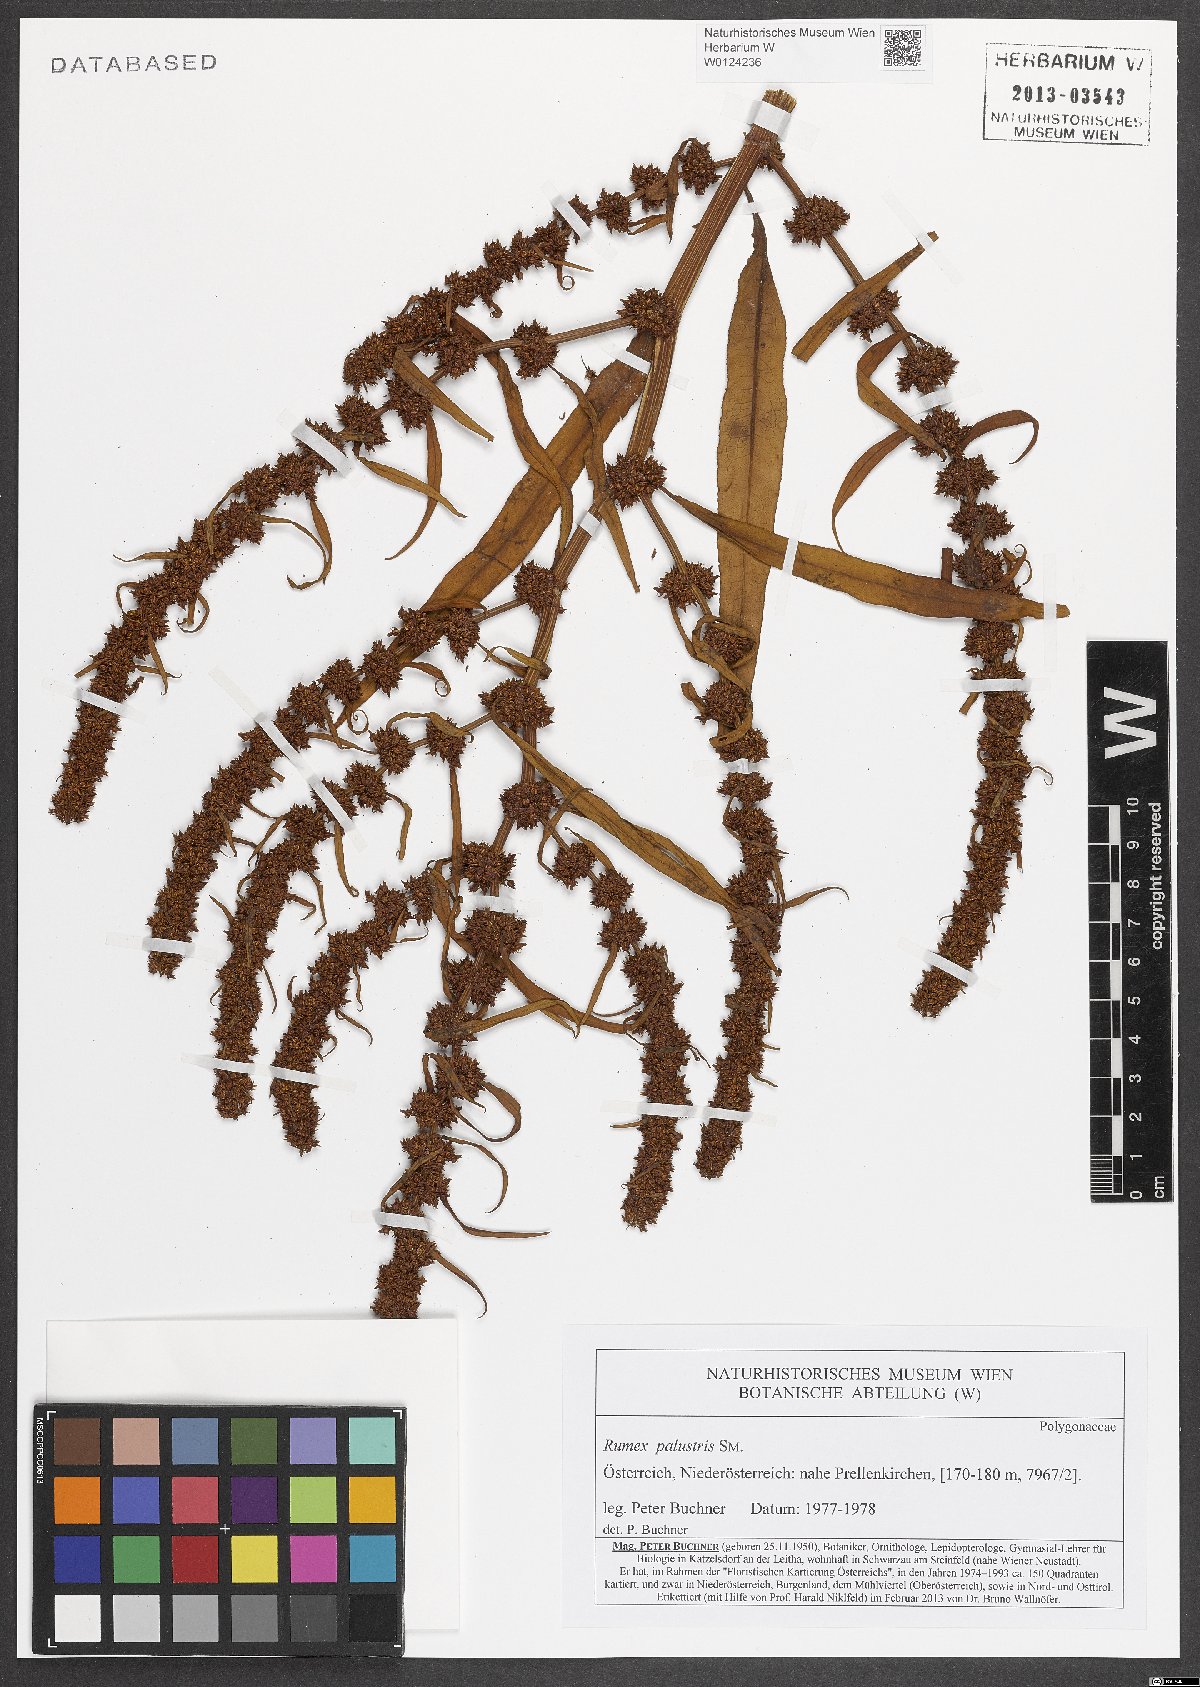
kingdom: Plantae
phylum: Tracheophyta
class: Magnoliopsida
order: Caryophyllales
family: Polygonaceae
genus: Rumex
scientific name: Rumex palustris
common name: Marsh dock
